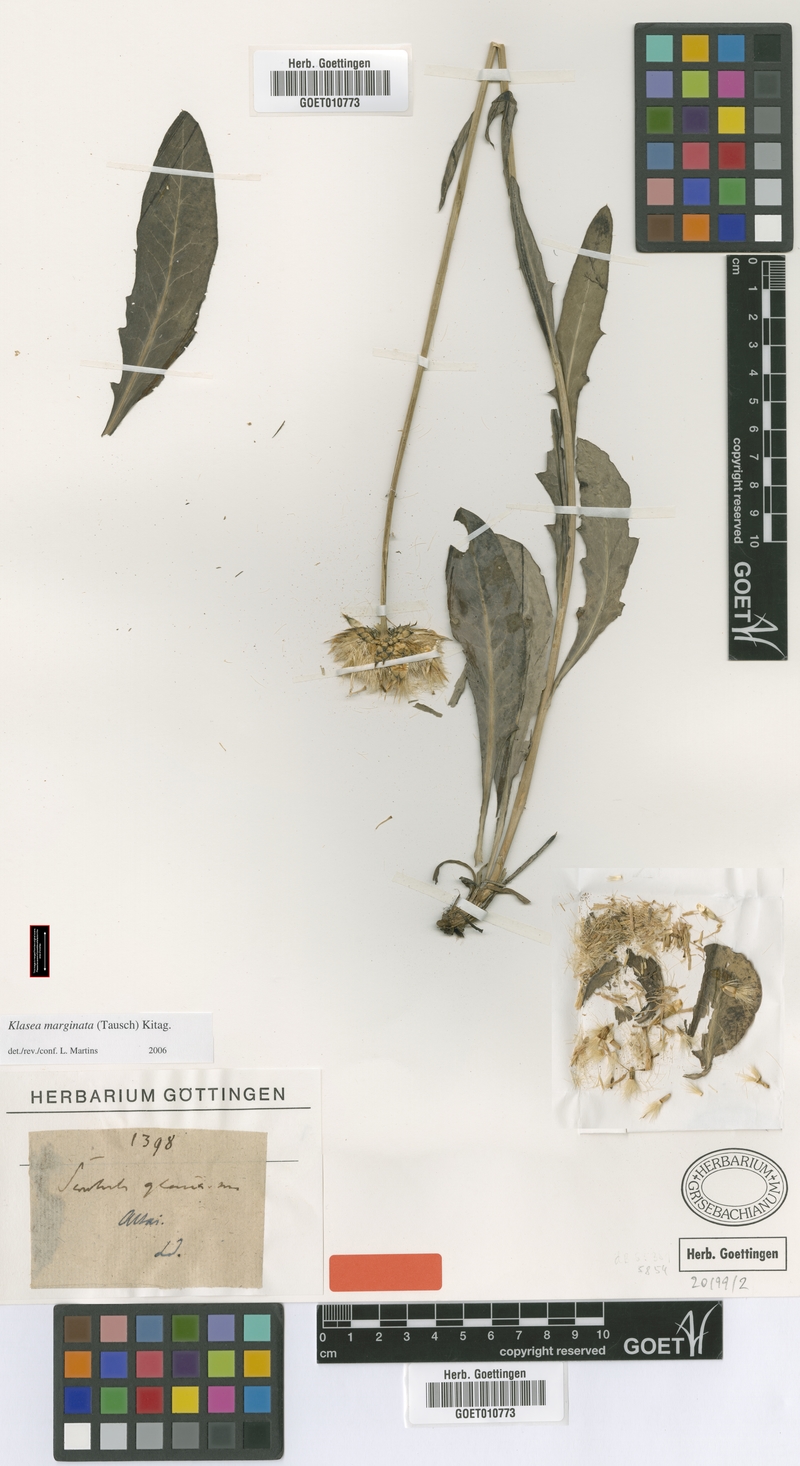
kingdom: Plantae
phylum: Tracheophyta
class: Magnoliopsida
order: Asterales
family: Asteraceae
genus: Klasea
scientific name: Klasea marginata
